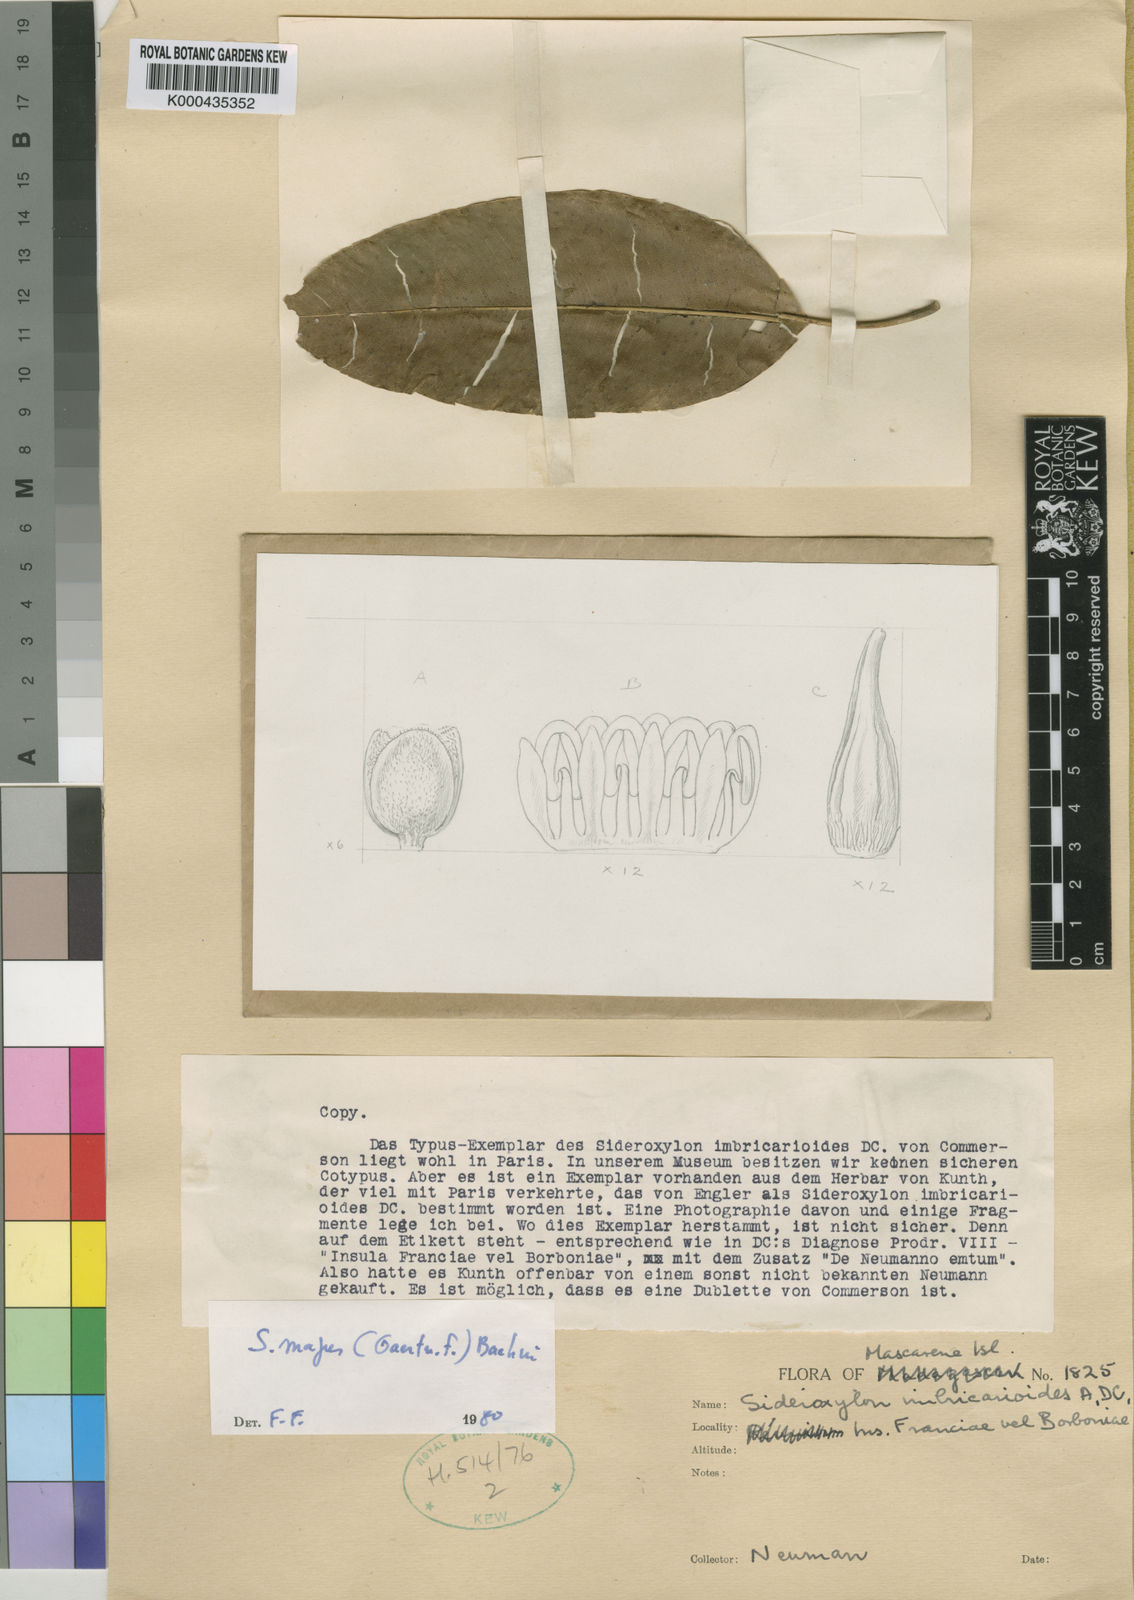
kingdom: Plantae
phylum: Tracheophyta
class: Magnoliopsida
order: Ericales
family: Sapotaceae
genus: Sideroxylon
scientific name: Sideroxylon majus
